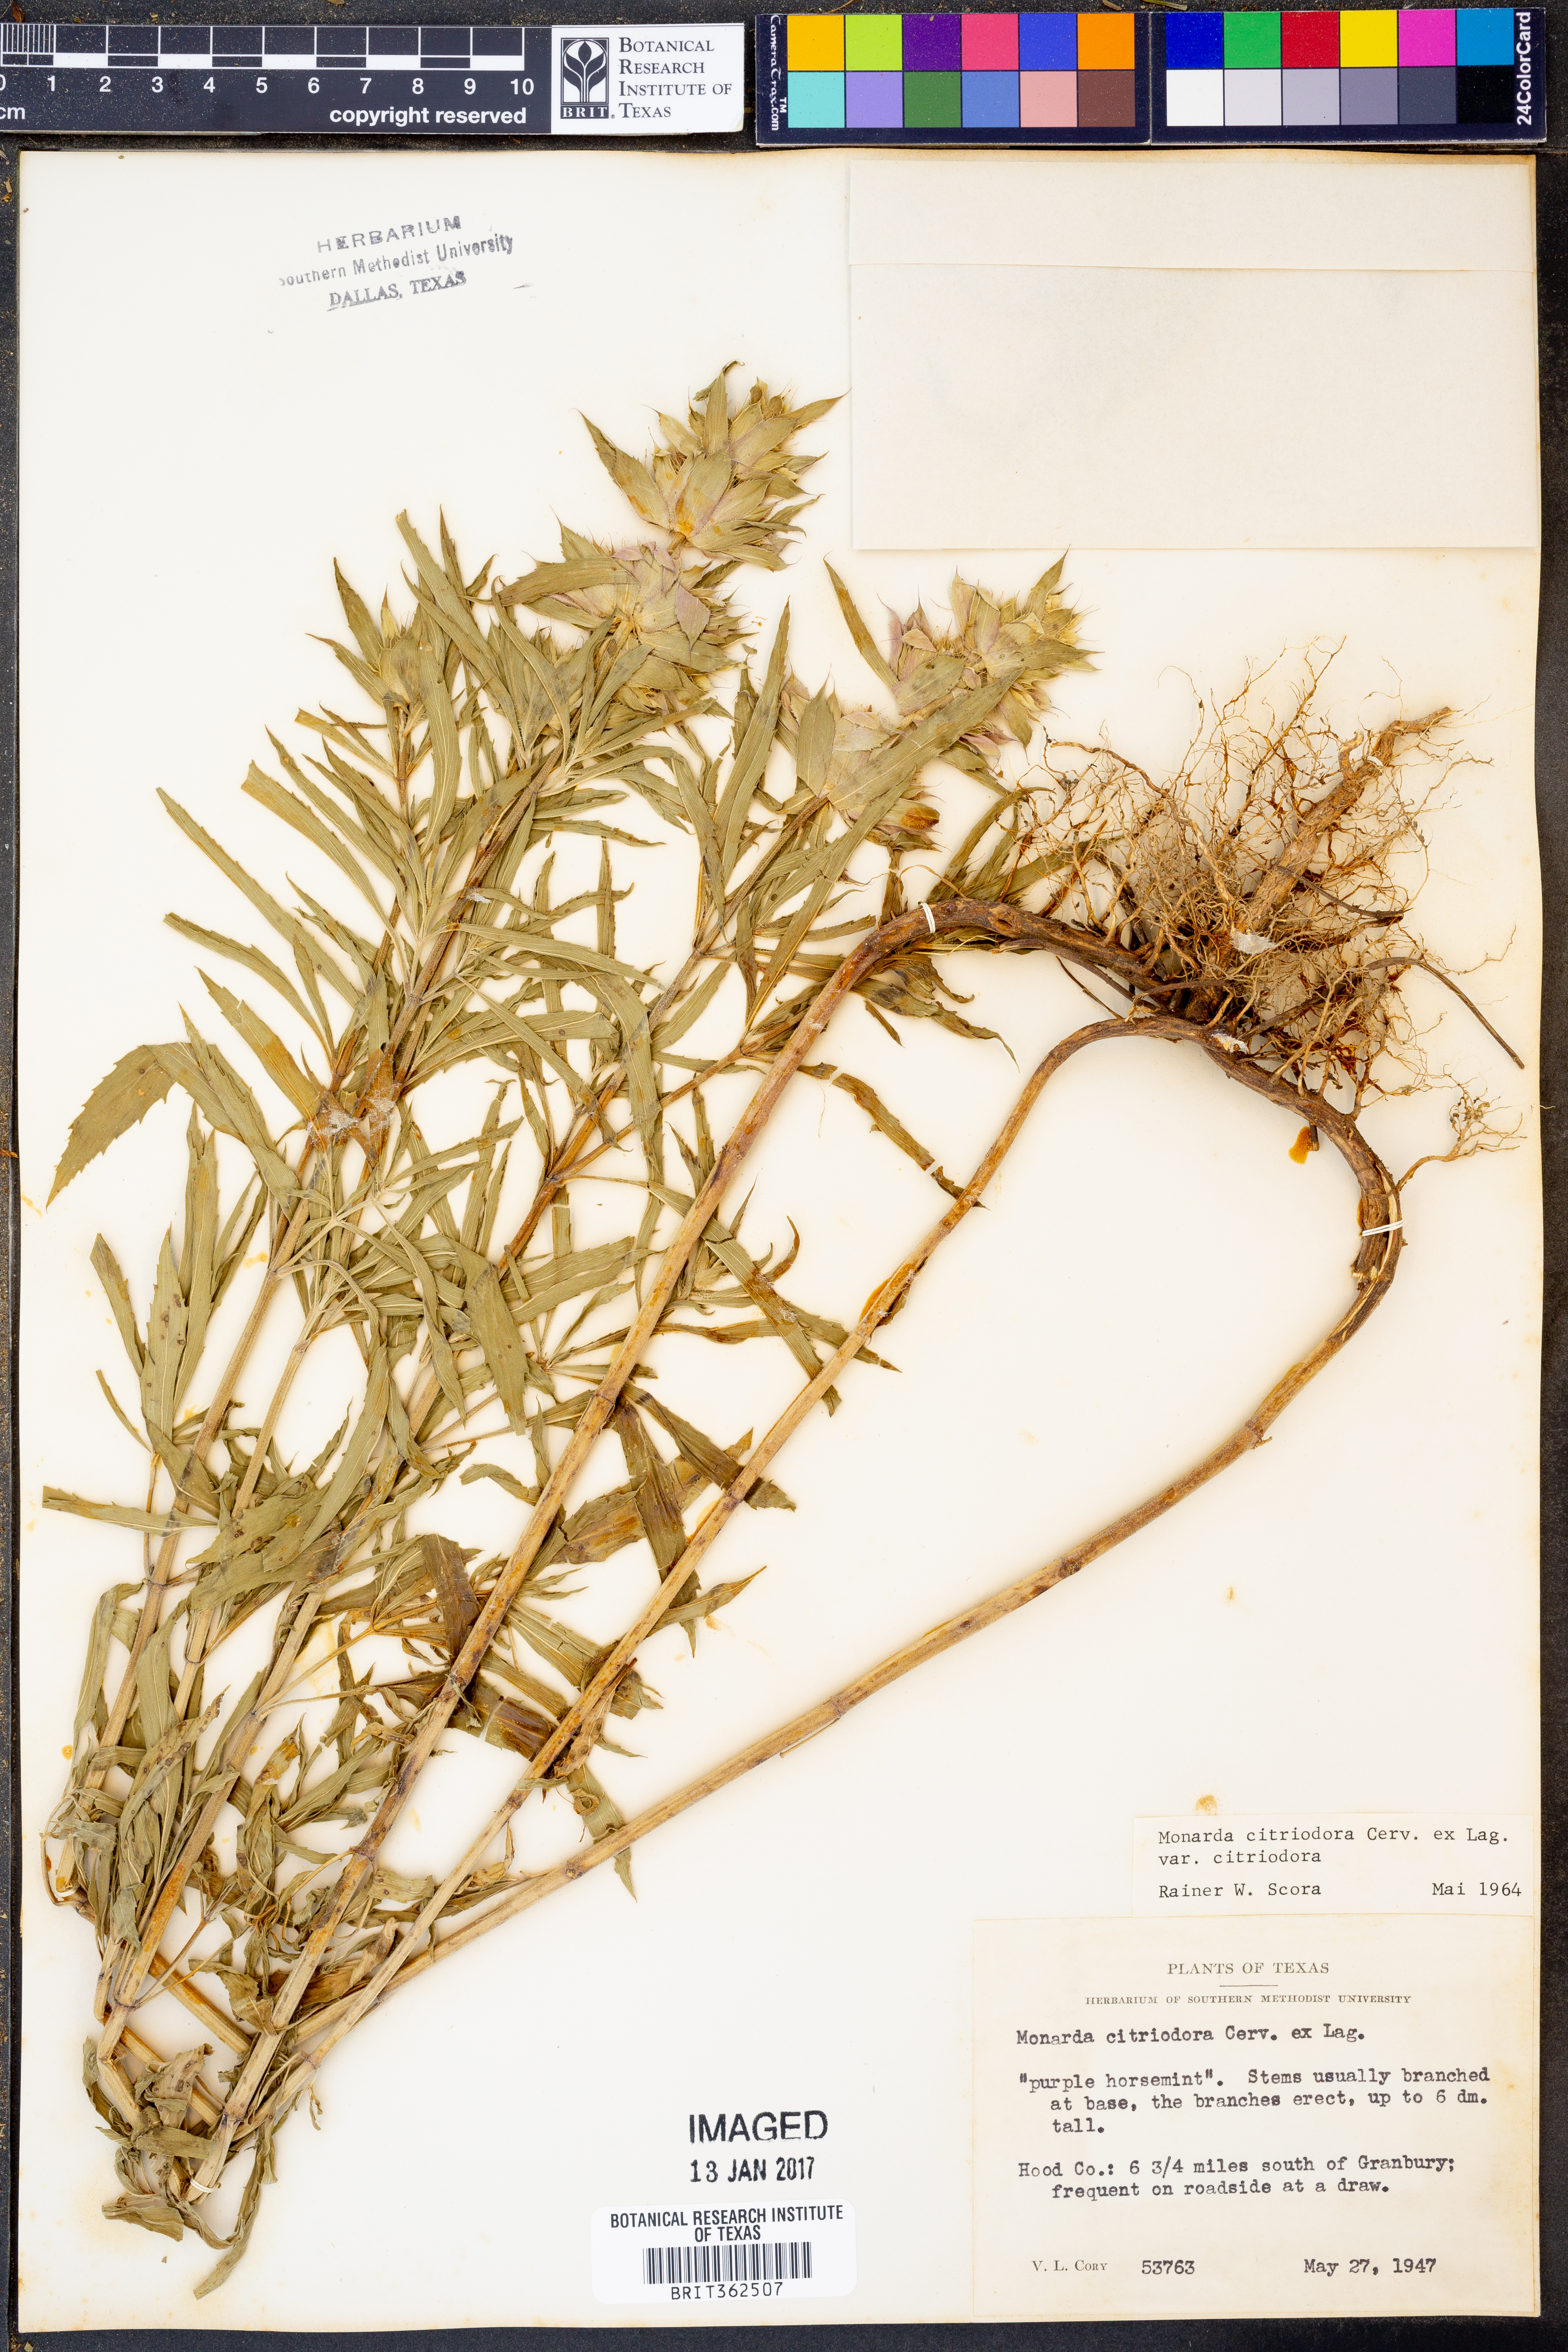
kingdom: Plantae
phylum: Tracheophyta
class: Magnoliopsida
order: Lamiales
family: Lamiaceae
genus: Monarda
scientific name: Monarda citriodora
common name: Lemon beebalm
